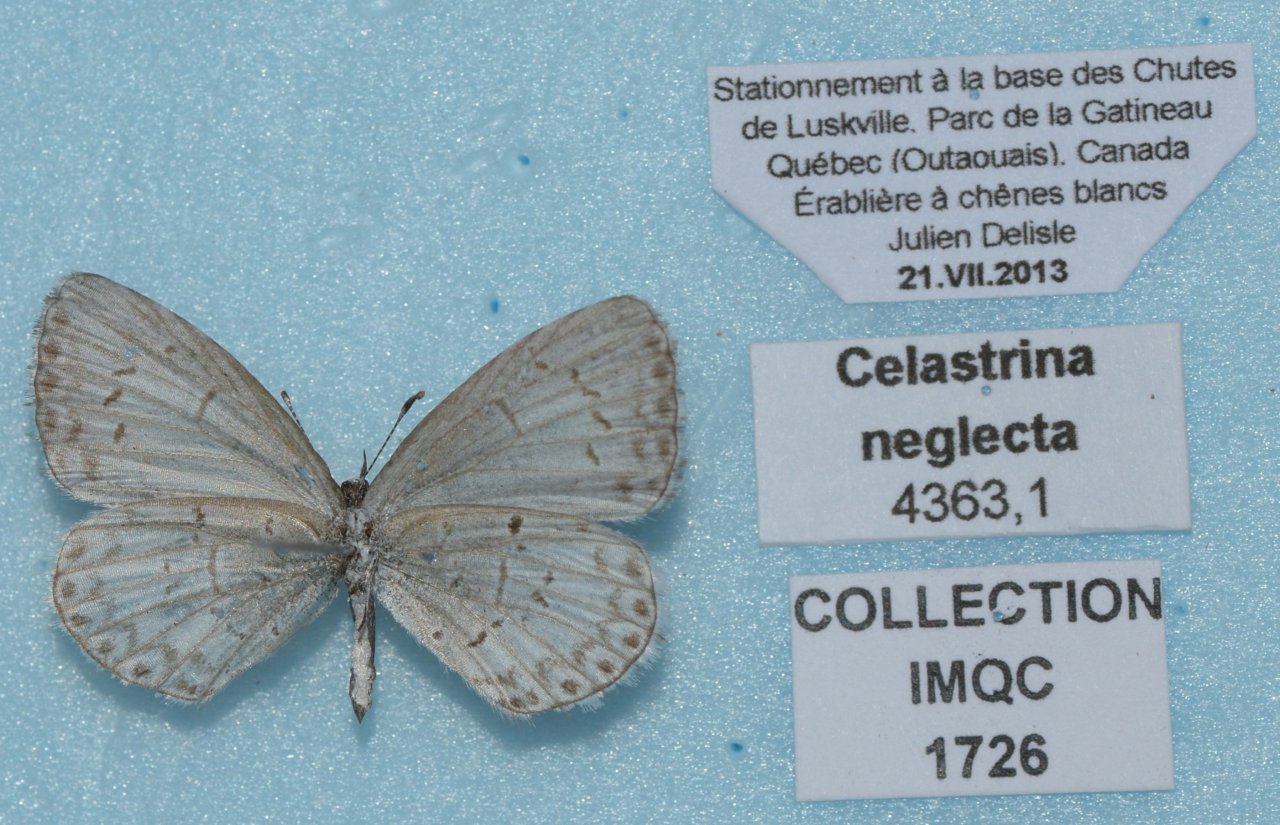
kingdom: Animalia
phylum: Arthropoda
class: Insecta
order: Lepidoptera
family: Lycaenidae
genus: Celastrina
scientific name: Celastrina lucia
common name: Northern Spring Azure
